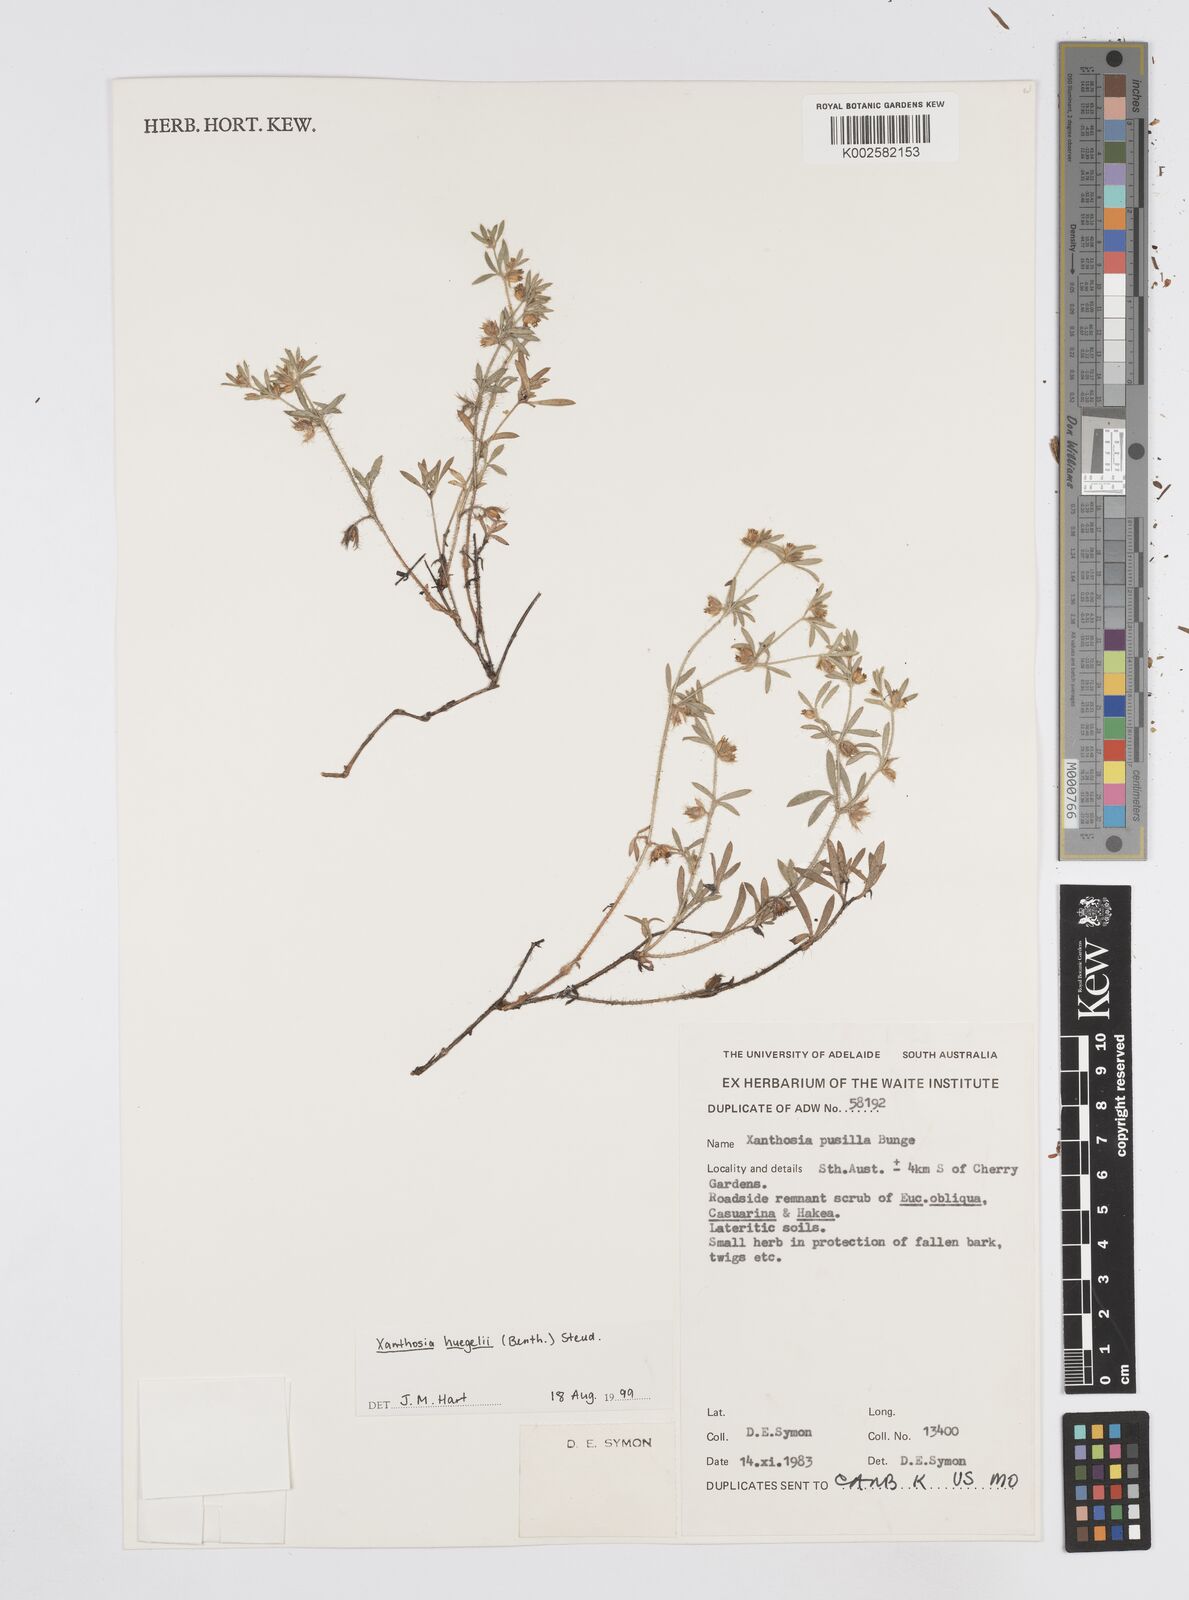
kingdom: Plantae
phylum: Tracheophyta
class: Magnoliopsida
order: Apiales
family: Apiaceae
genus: Xanthosia
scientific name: Xanthosia huegelii
